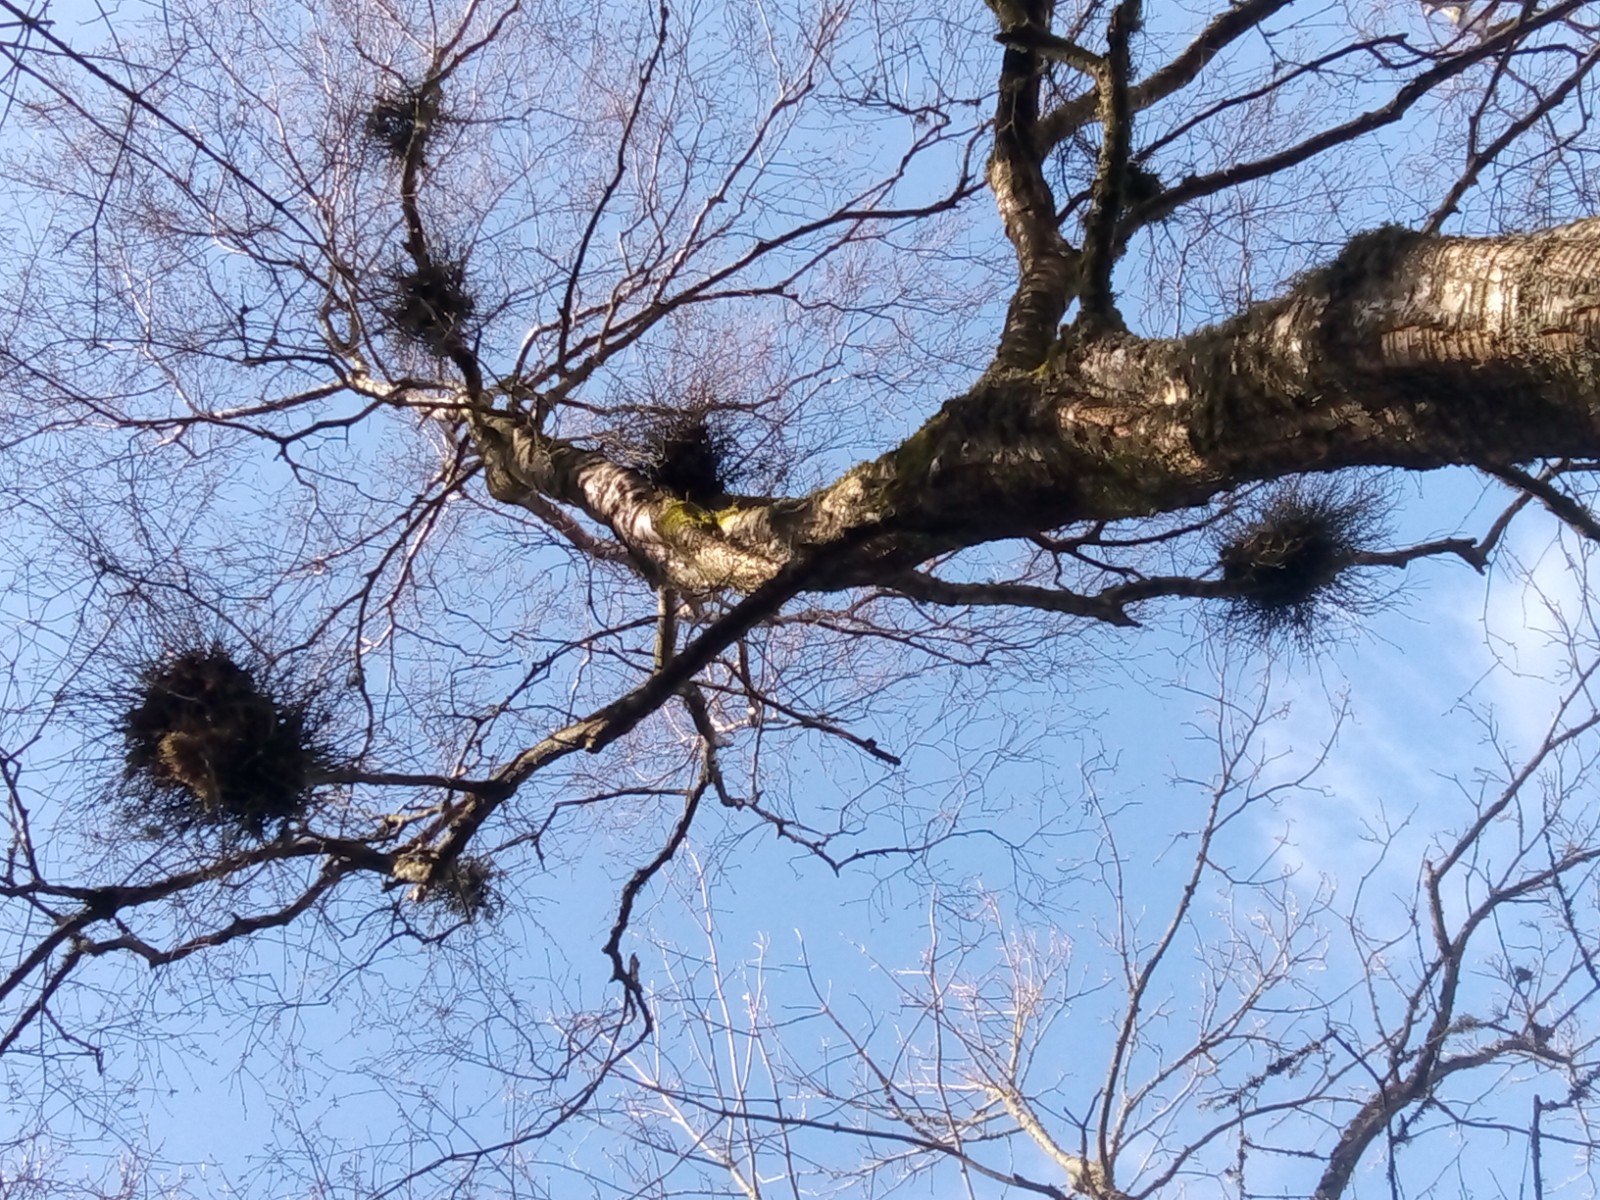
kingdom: Fungi
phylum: Ascomycota
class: Taphrinomycetes
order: Taphrinales
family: Taphrinaceae
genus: Taphrina
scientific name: Taphrina betulina
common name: hekse-sækdug
